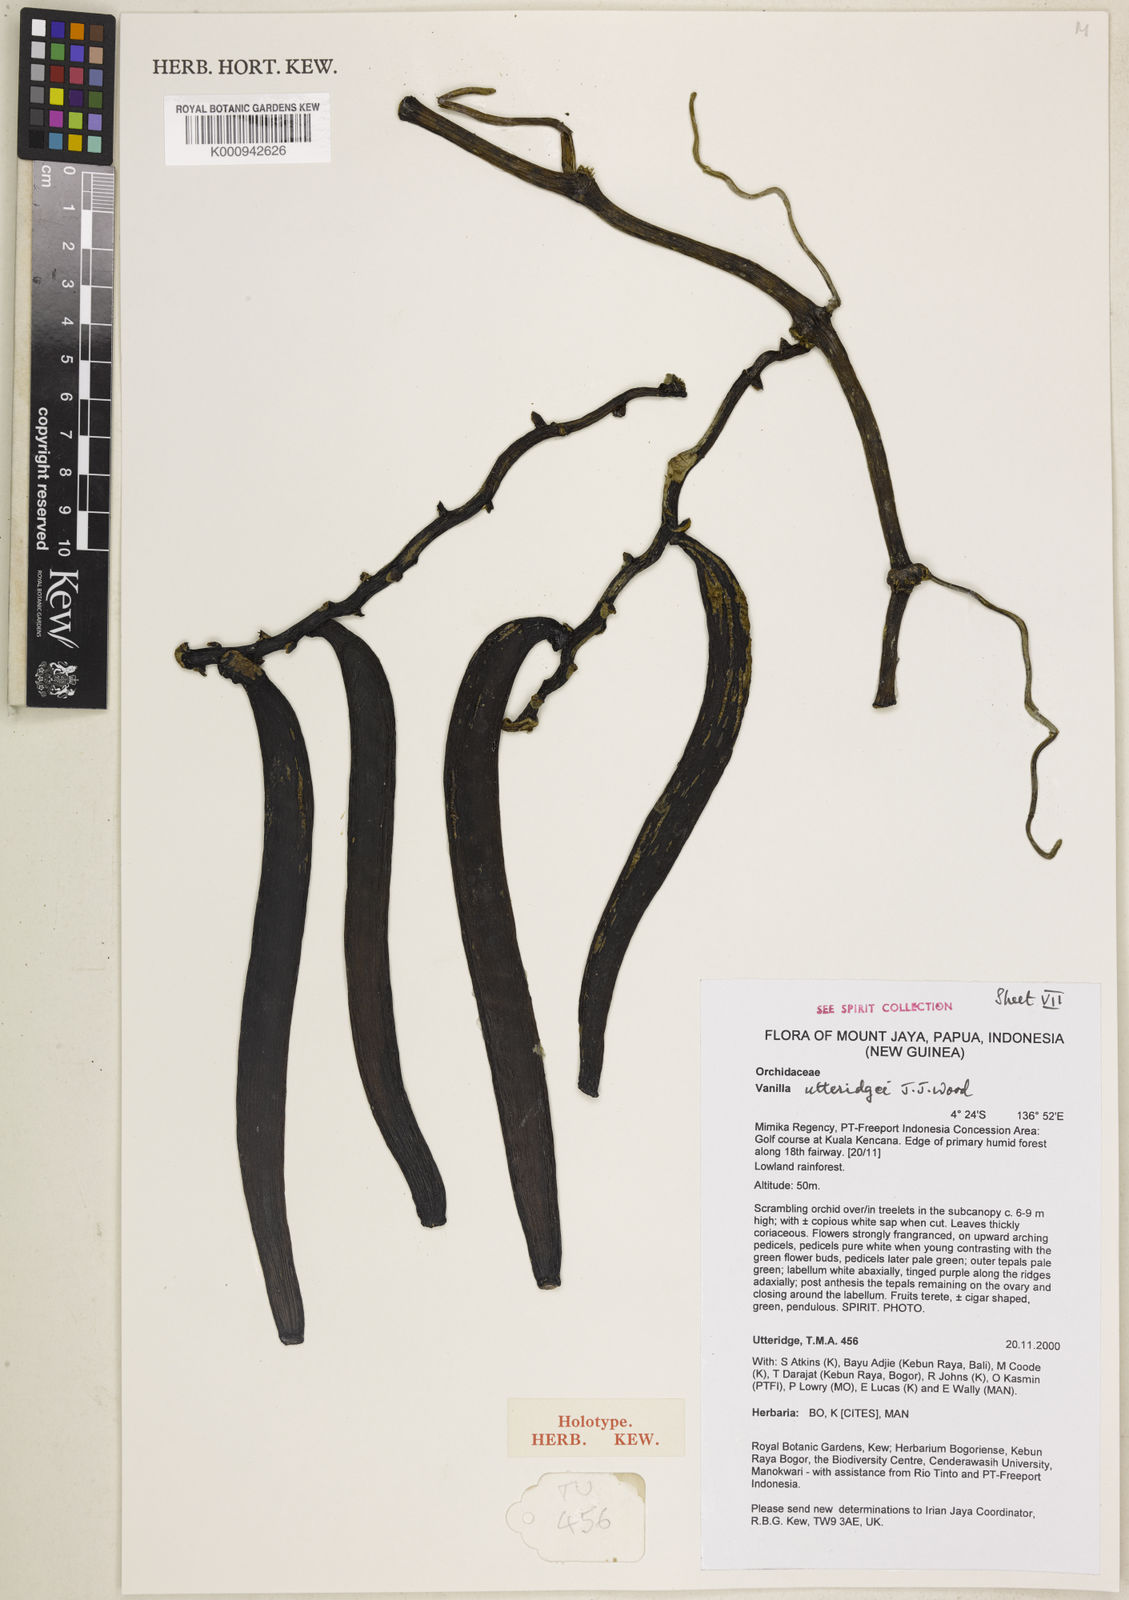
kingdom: Plantae
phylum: Tracheophyta
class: Liliopsida
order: Asparagales
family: Orchidaceae
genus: Vanilla
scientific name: Vanilla utteridgei
